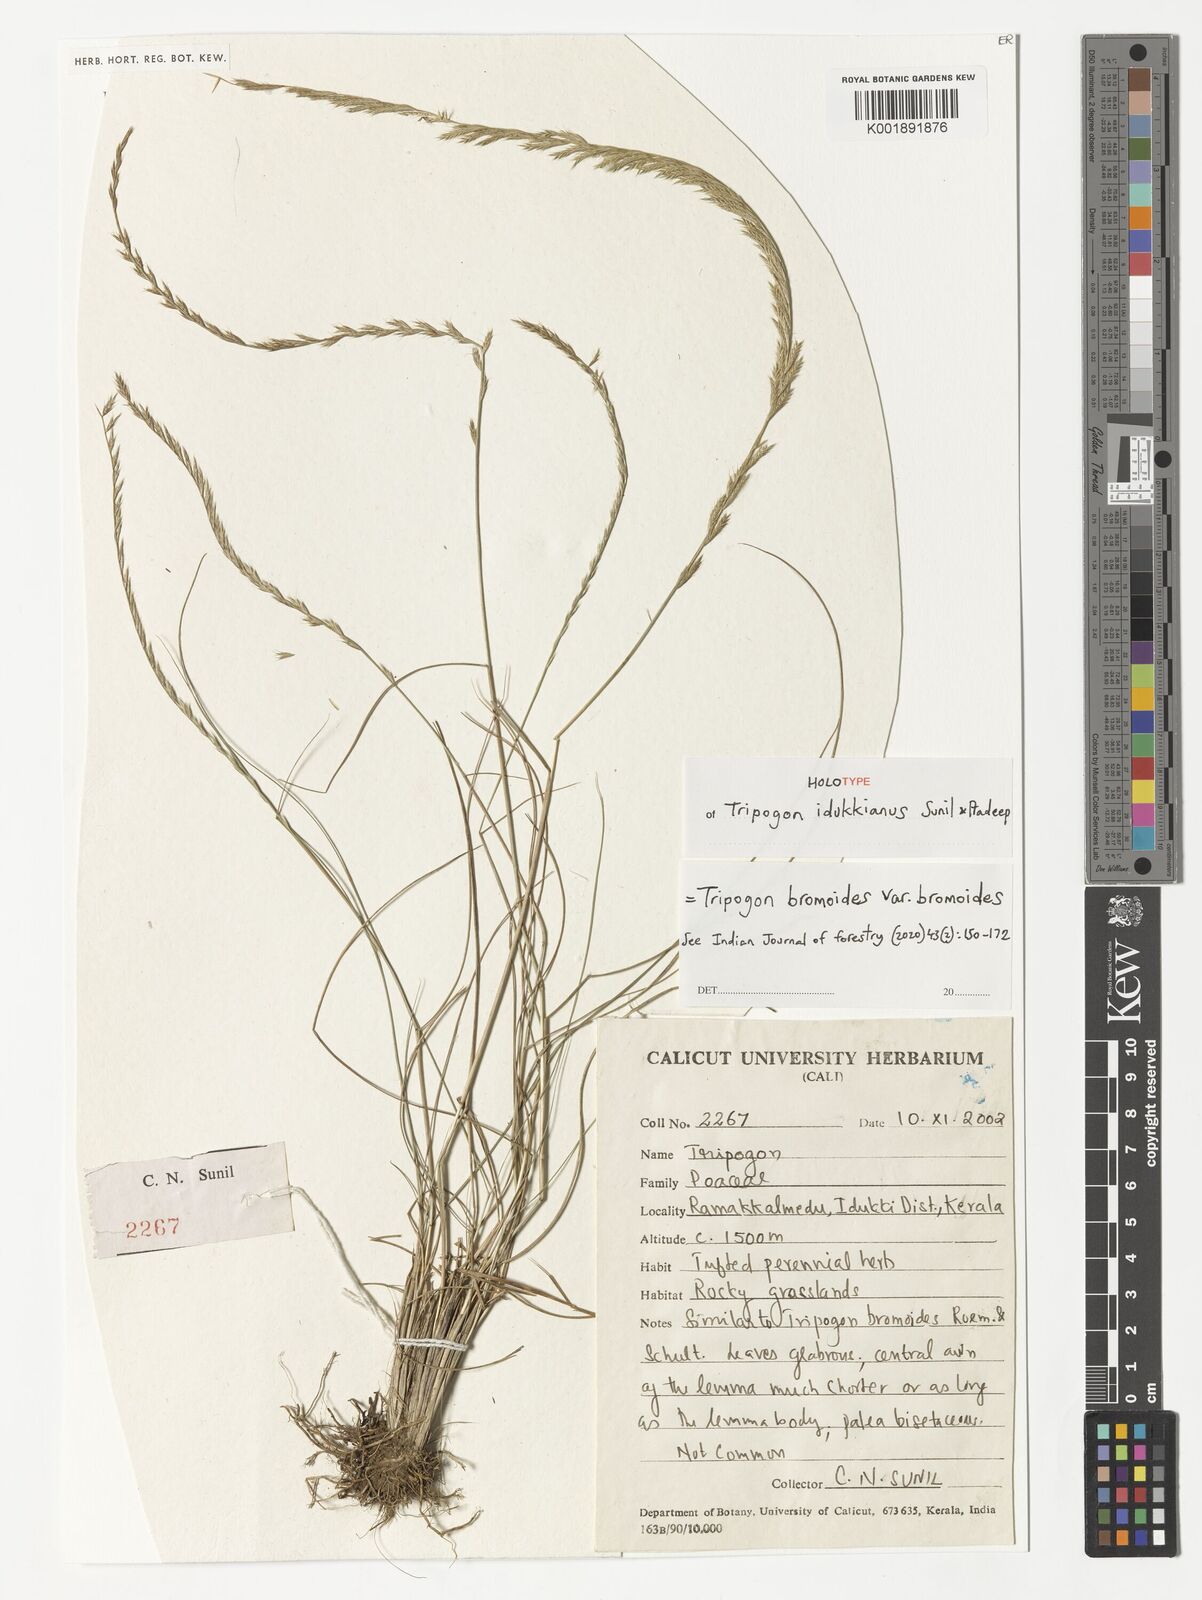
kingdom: Plantae
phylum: Tracheophyta
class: Liliopsida
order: Poales
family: Poaceae
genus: Tripogon
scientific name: Tripogon bromoides
